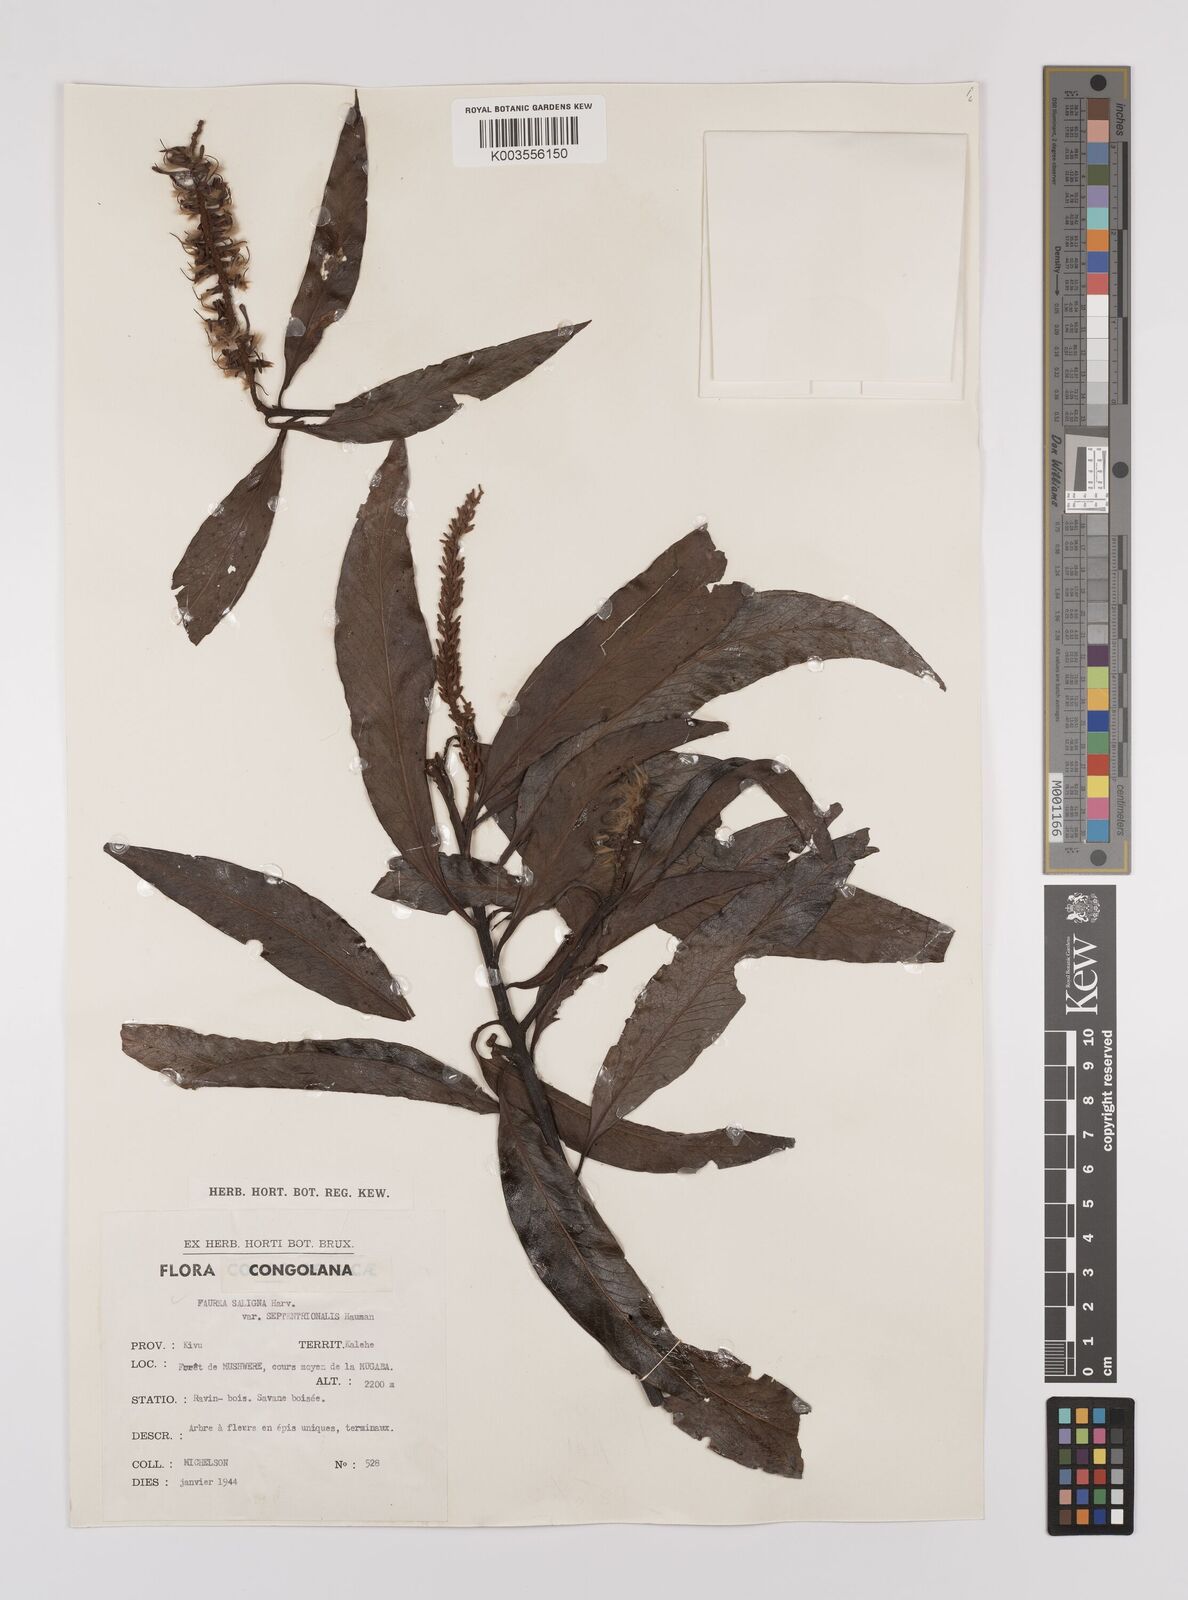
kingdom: Plantae
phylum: Tracheophyta
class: Magnoliopsida
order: Proteales
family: Proteaceae
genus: Faurea
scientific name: Faurea saligna
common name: African bean
